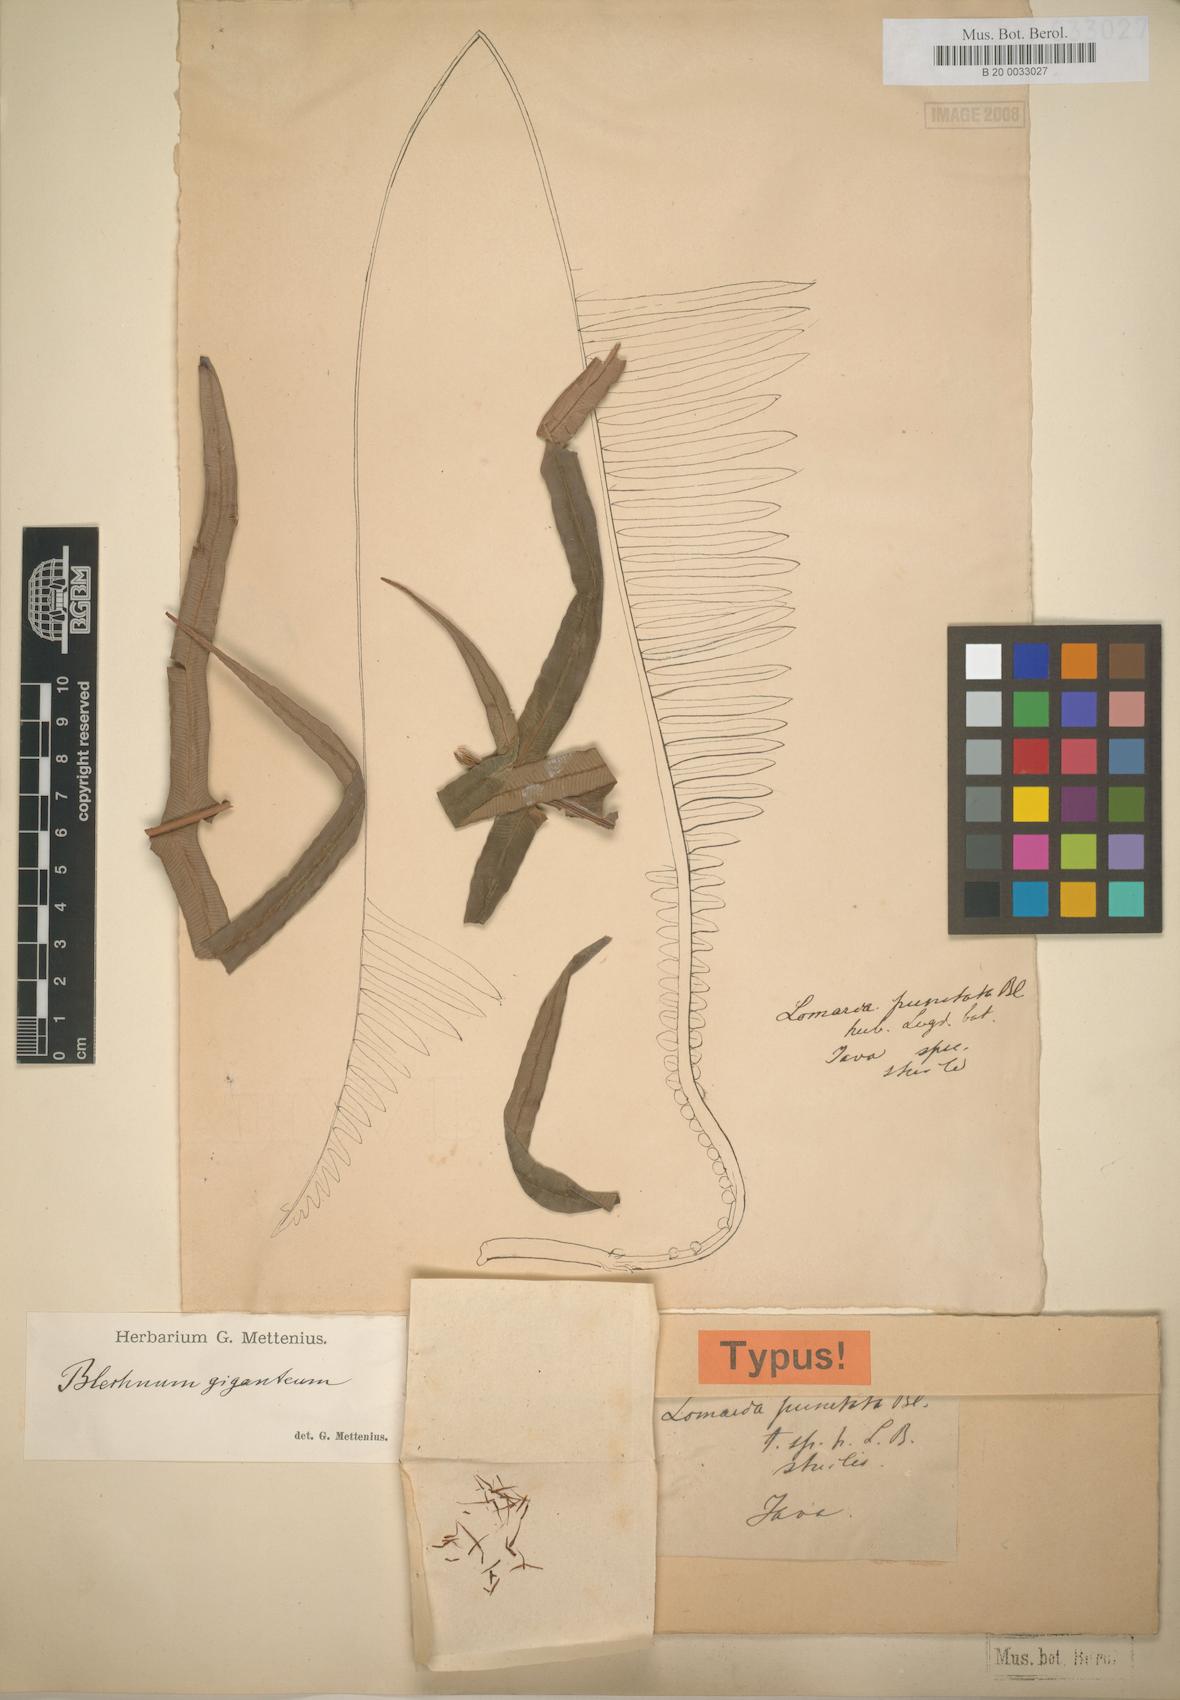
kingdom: Plantae
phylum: Tracheophyta
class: Polypodiopsida
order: Polypodiales
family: Blechnaceae
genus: Austroblechnum
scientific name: Austroblechnum patersonii
